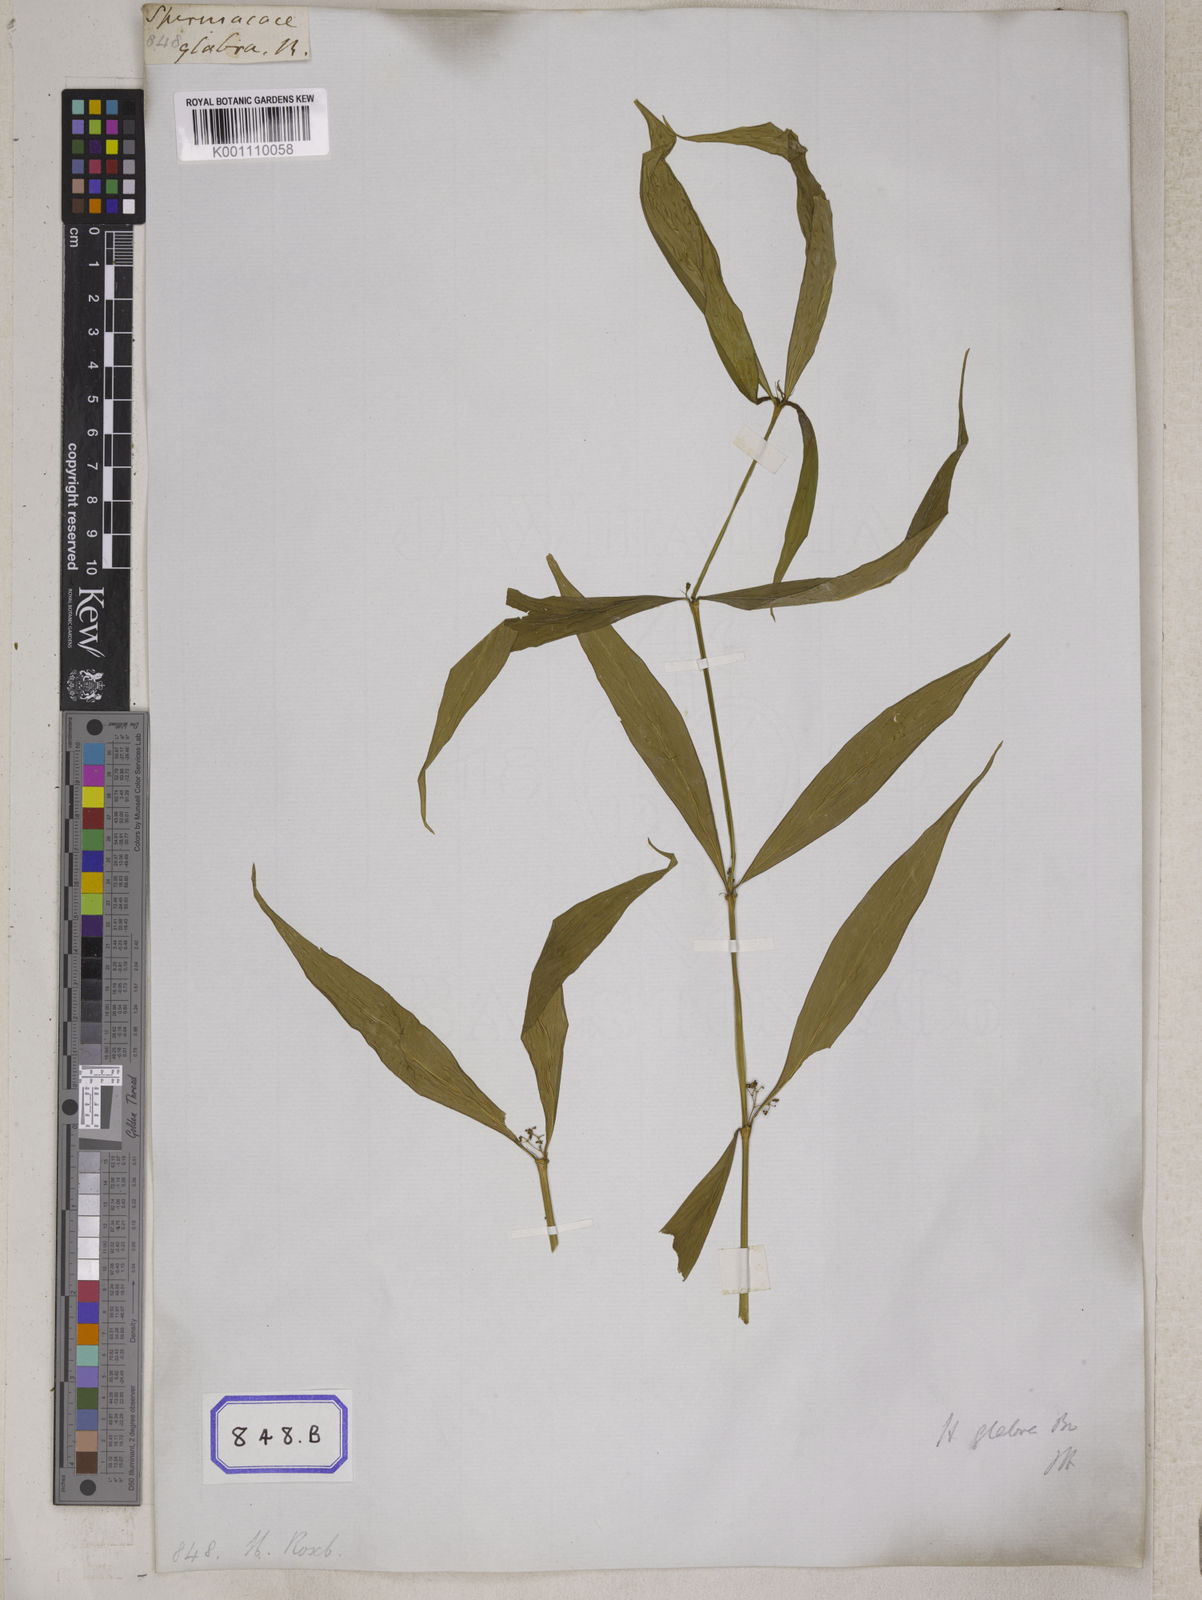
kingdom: Plantae
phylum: Tracheophyta
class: Magnoliopsida
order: Gentianales
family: Rubiaceae
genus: Hedyotis
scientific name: Hedyotis
